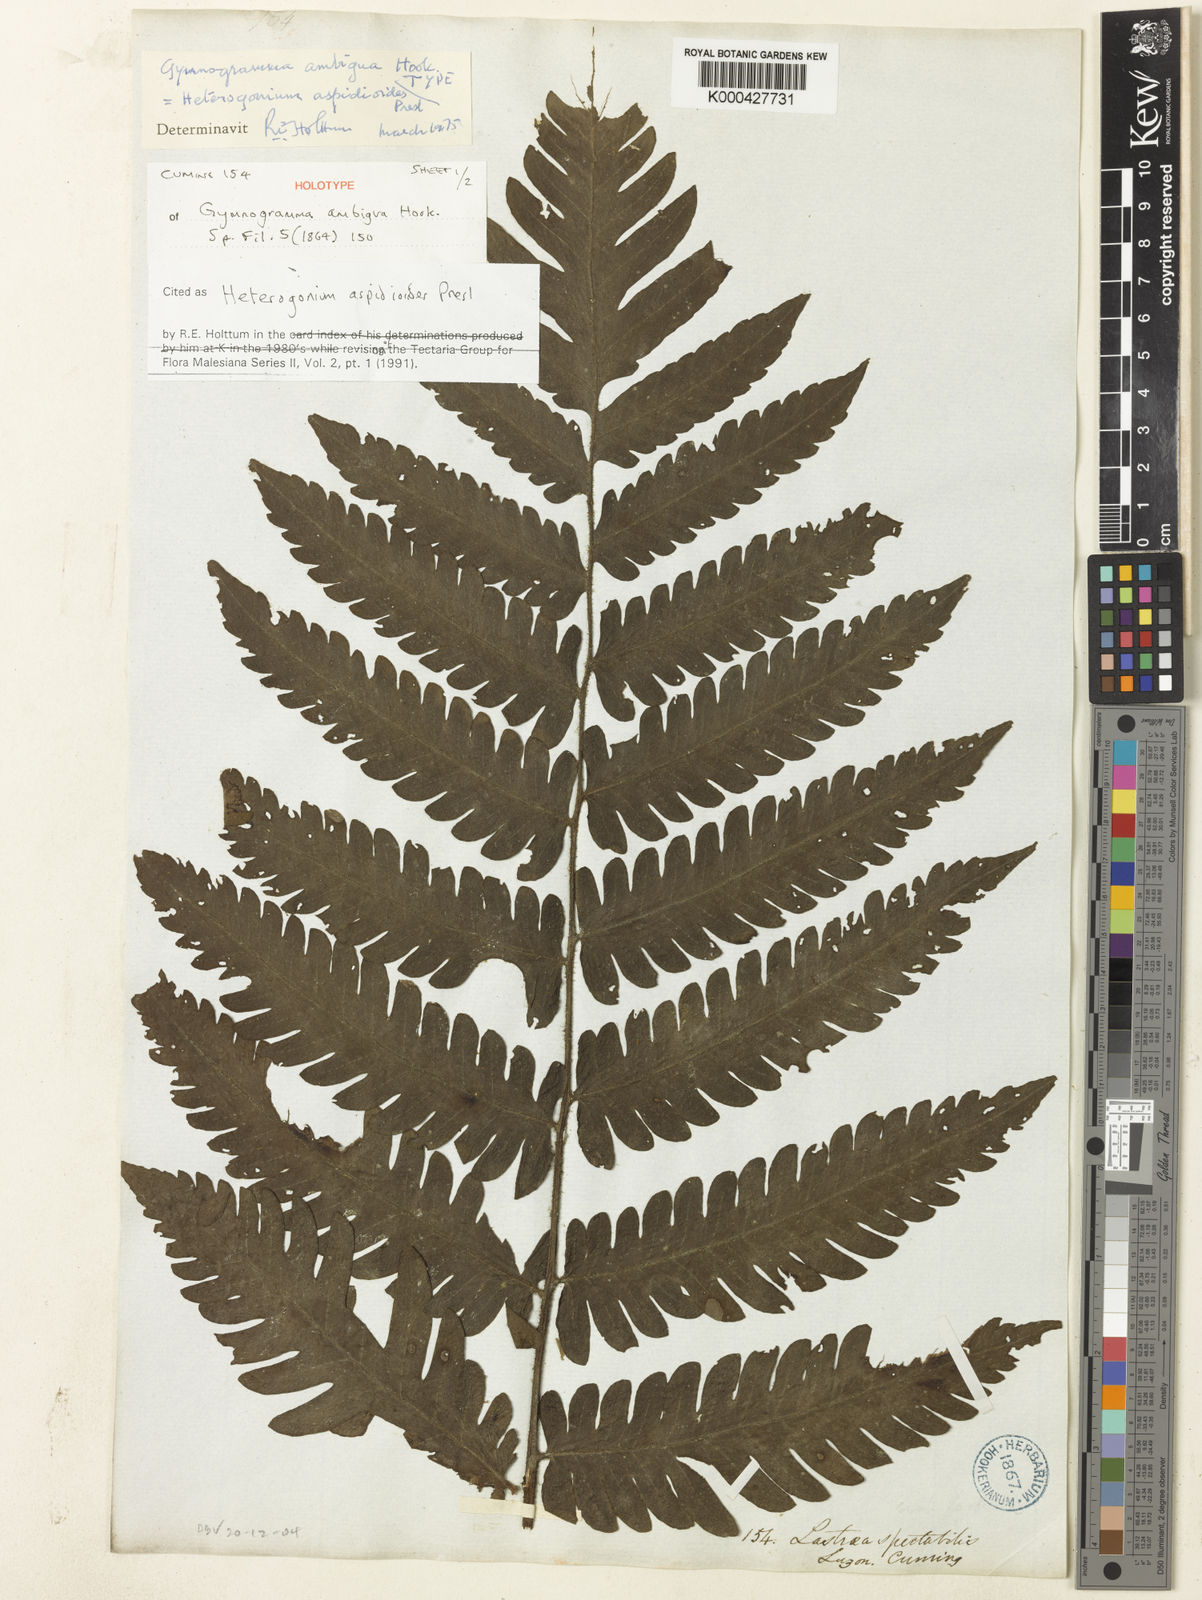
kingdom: Plantae
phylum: Tracheophyta
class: Polypodiopsida
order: Polypodiales
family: Tectariaceae
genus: Tectaria
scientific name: Tectaria aspidioides
